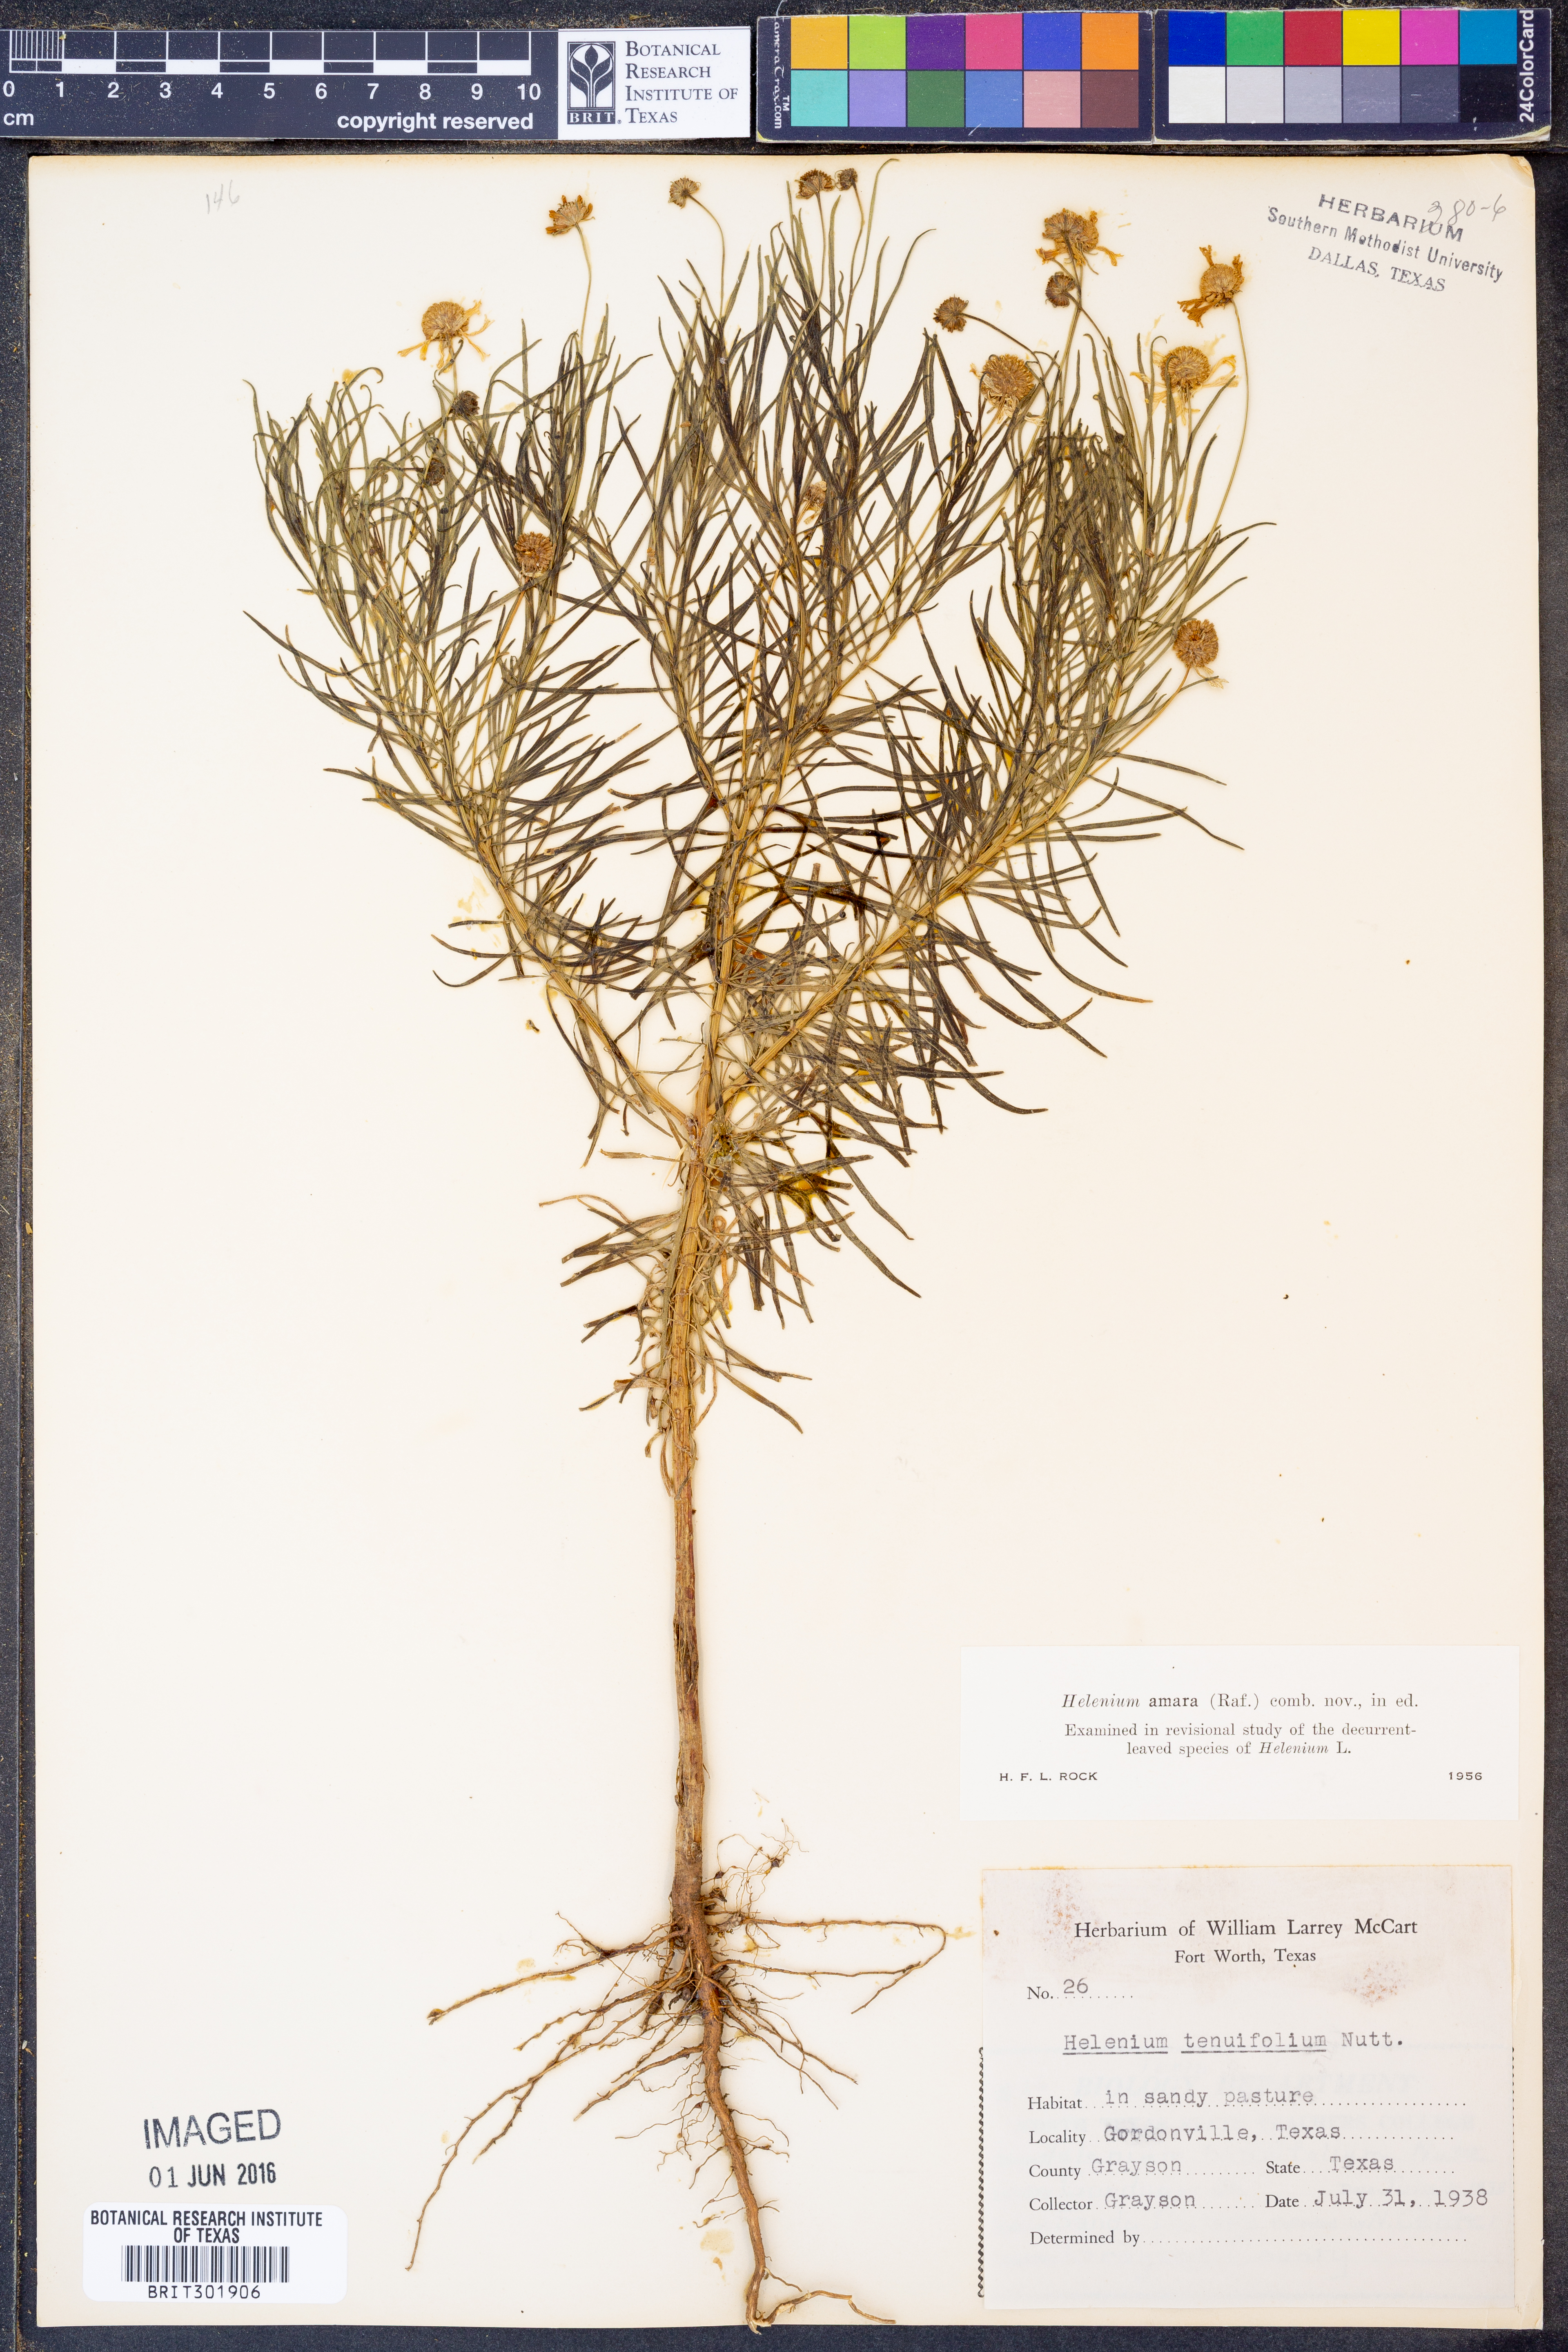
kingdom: Plantae
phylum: Tracheophyta
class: Magnoliopsida
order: Asterales
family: Asteraceae
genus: Helenium
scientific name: Helenium amarum
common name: Bitter sneezeweed
